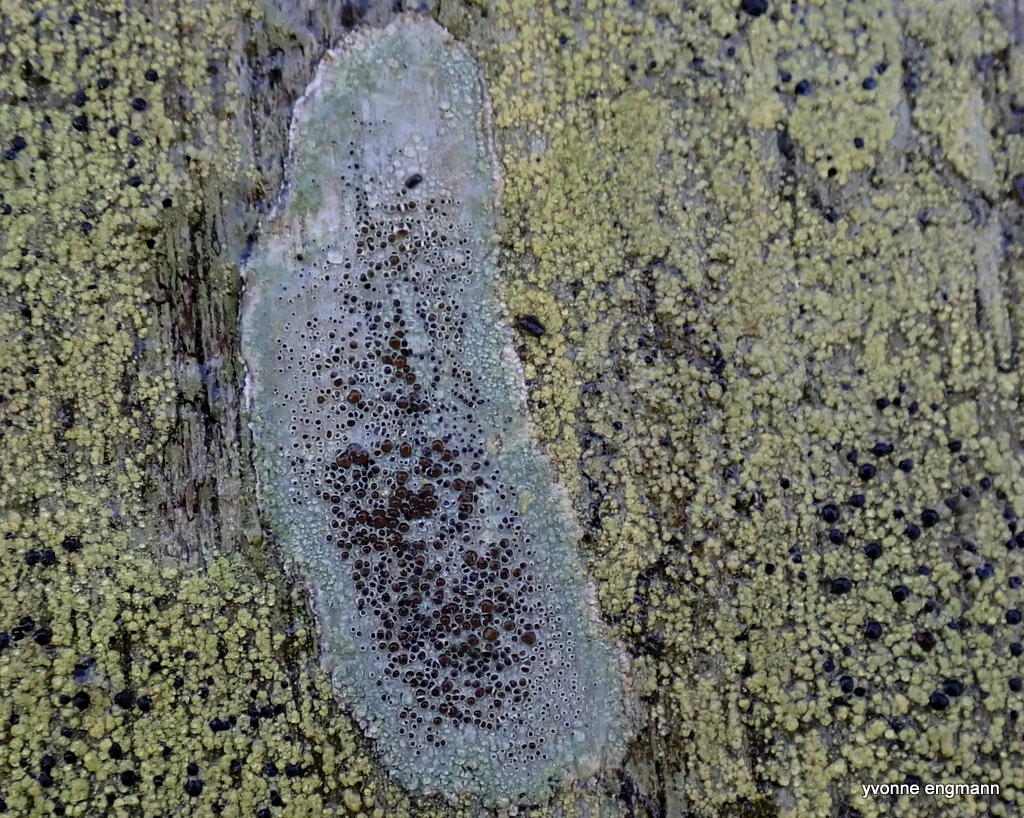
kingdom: Fungi
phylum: Ascomycota
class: Lecanoromycetes
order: Lecanorales
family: Lecanoraceae
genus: Lecanora
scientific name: Lecanora chlarotera
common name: brun kantskivelav
